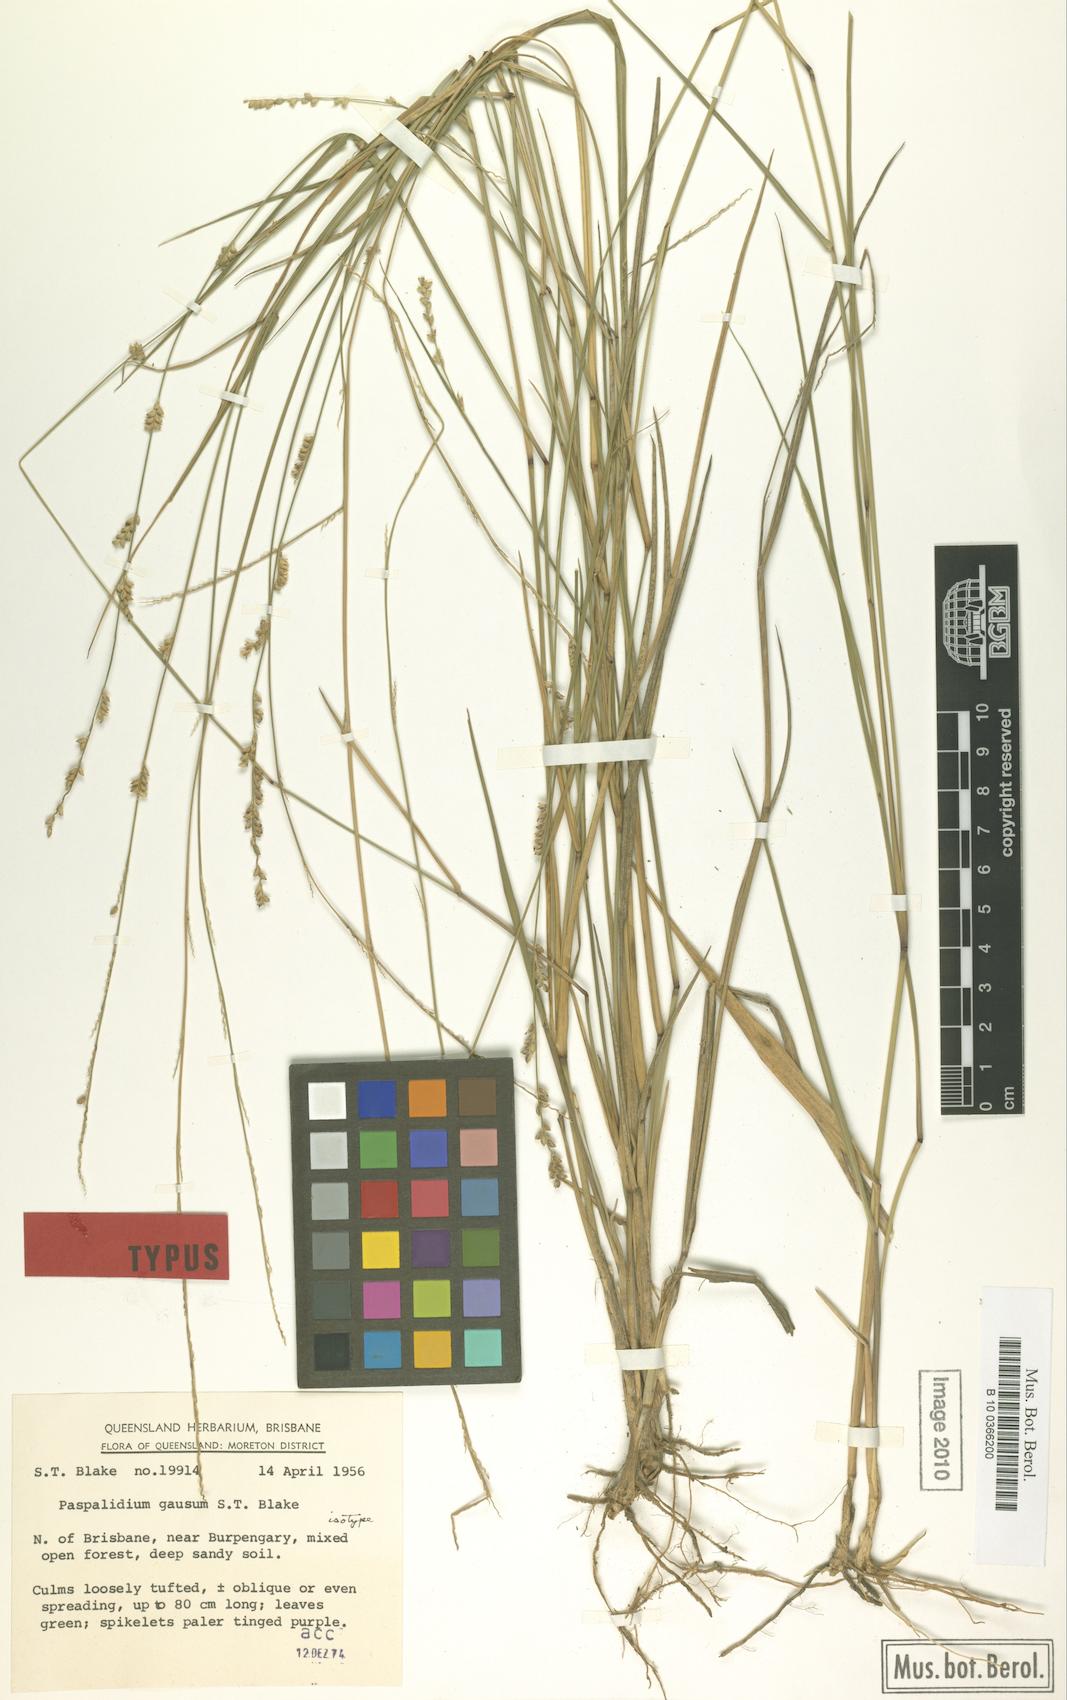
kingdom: Plantae
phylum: Tracheophyta
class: Liliopsida
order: Poales
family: Poaceae
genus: Setaria
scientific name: Setaria gausa
